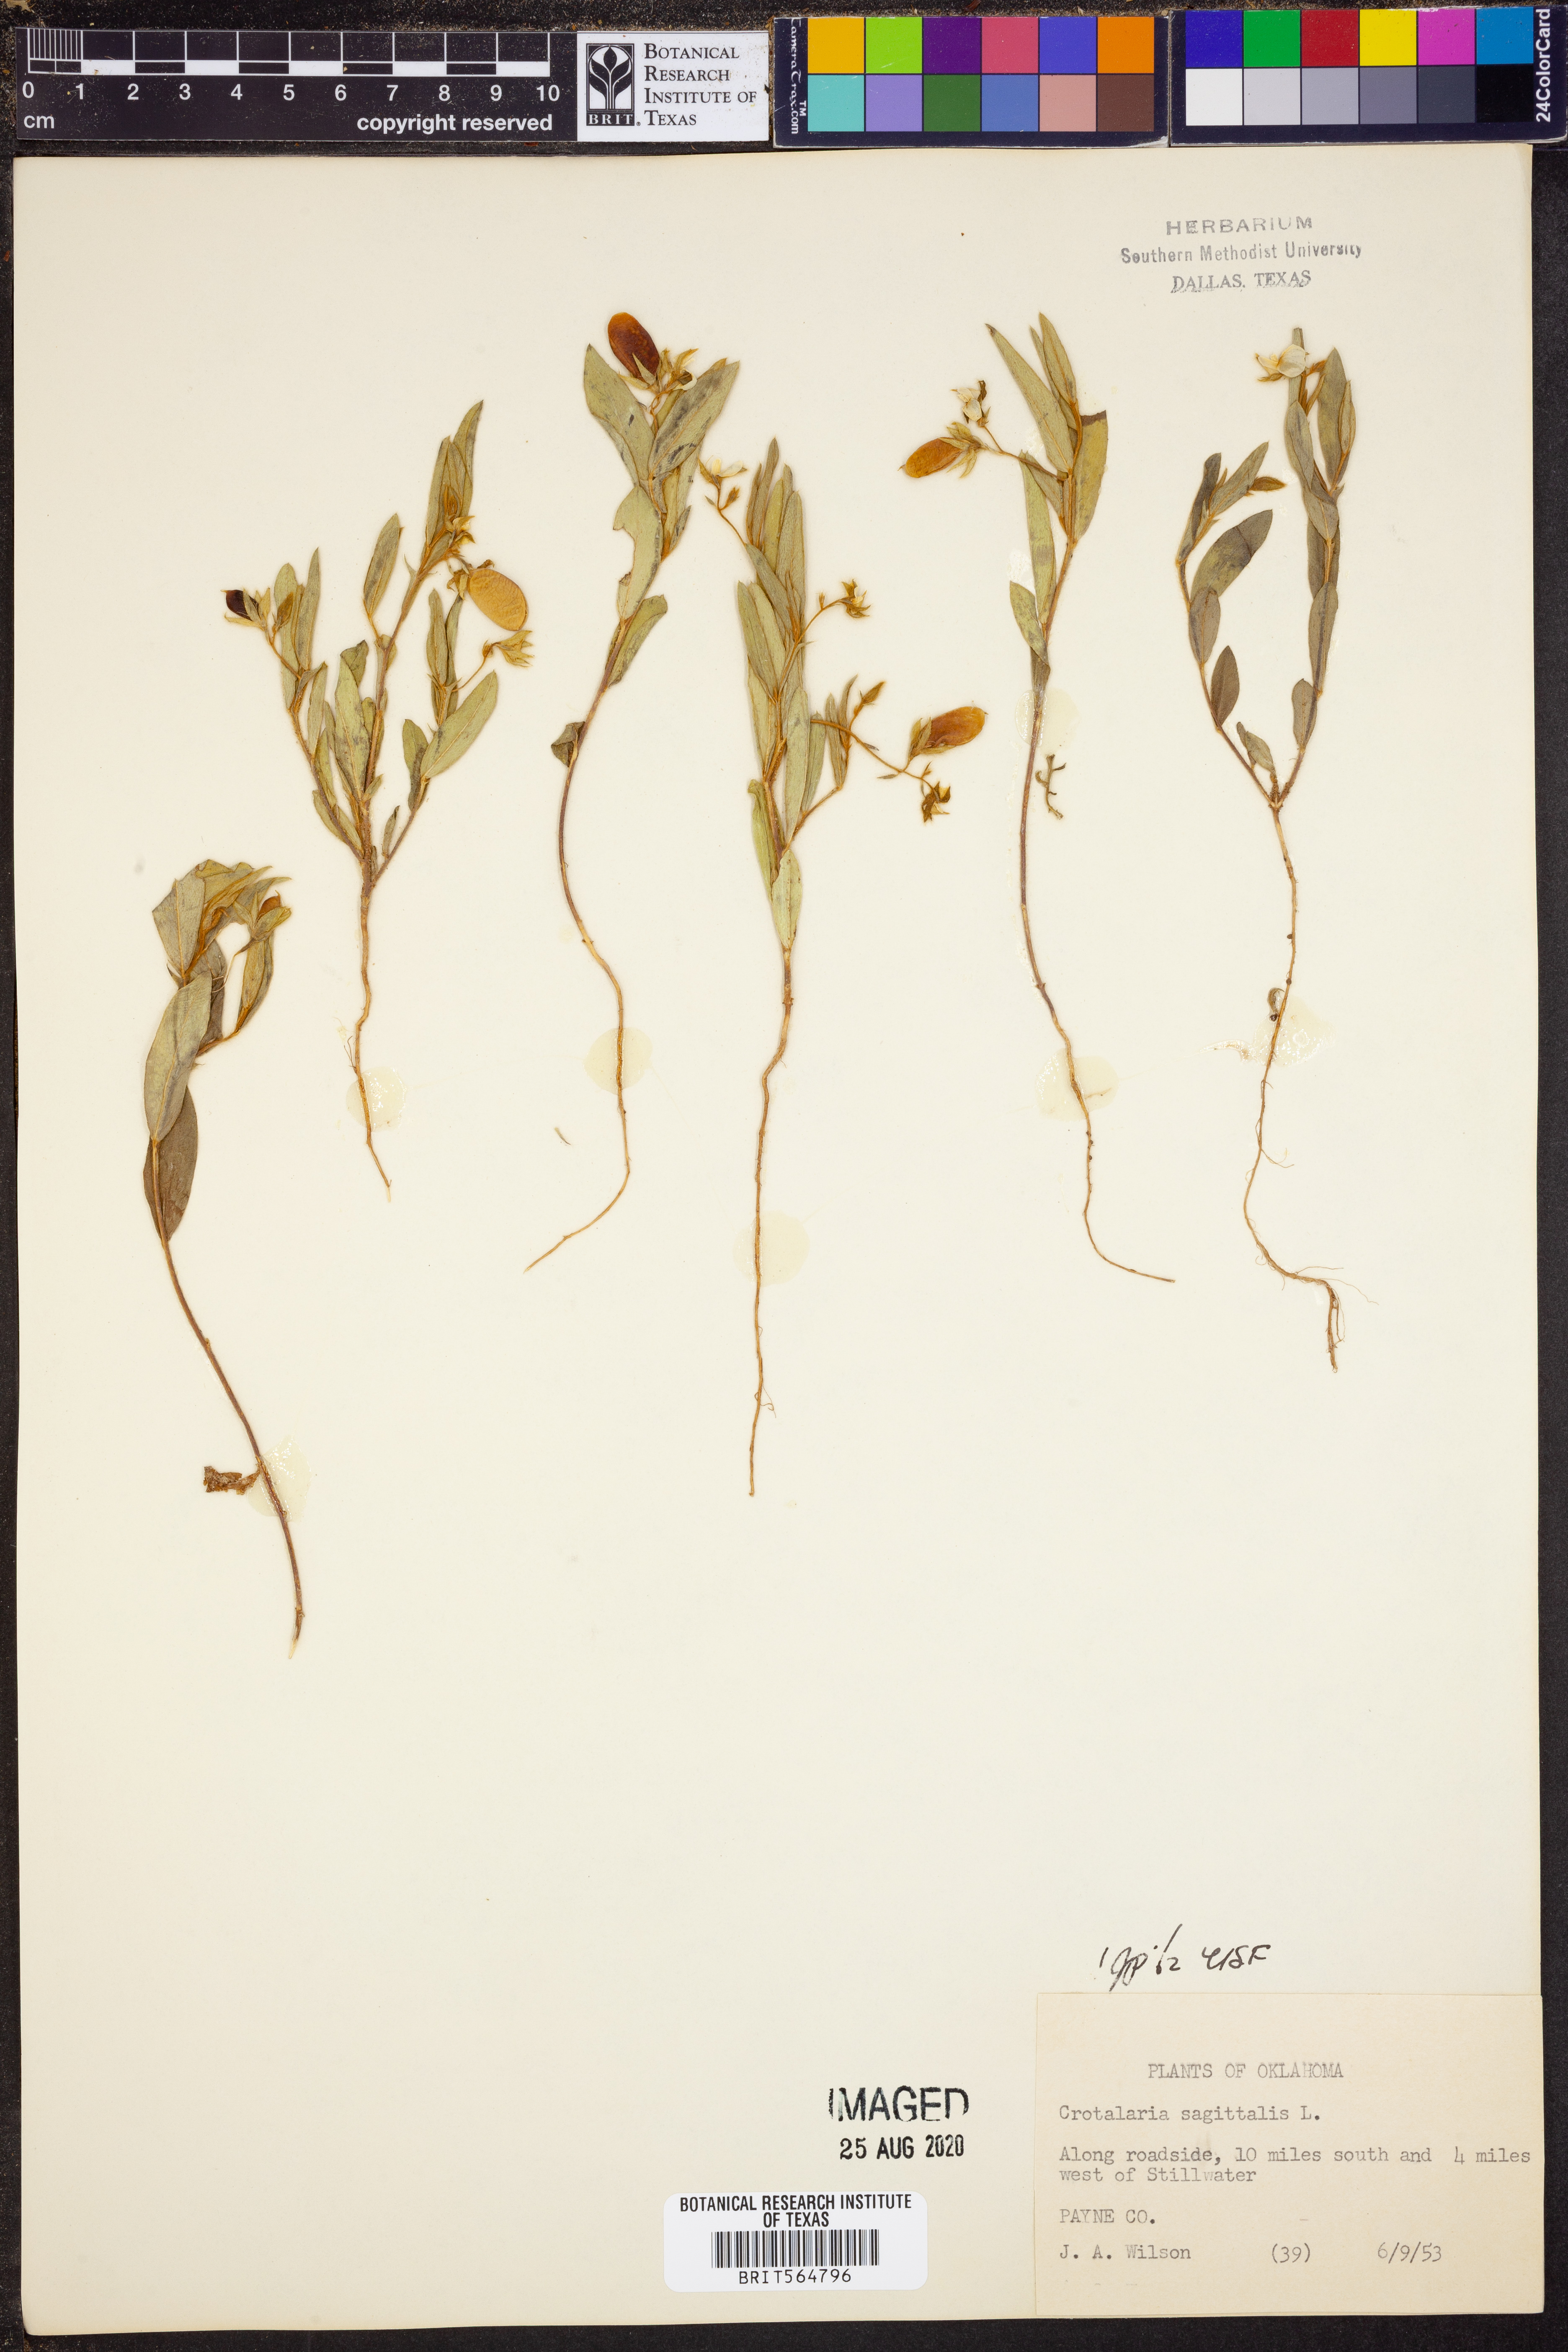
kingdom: Plantae
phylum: Tracheophyta
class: Magnoliopsida
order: Fabales
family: Fabaceae
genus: Crotalaria
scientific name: Crotalaria sagittalis
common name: Arrowhead rattlebox
